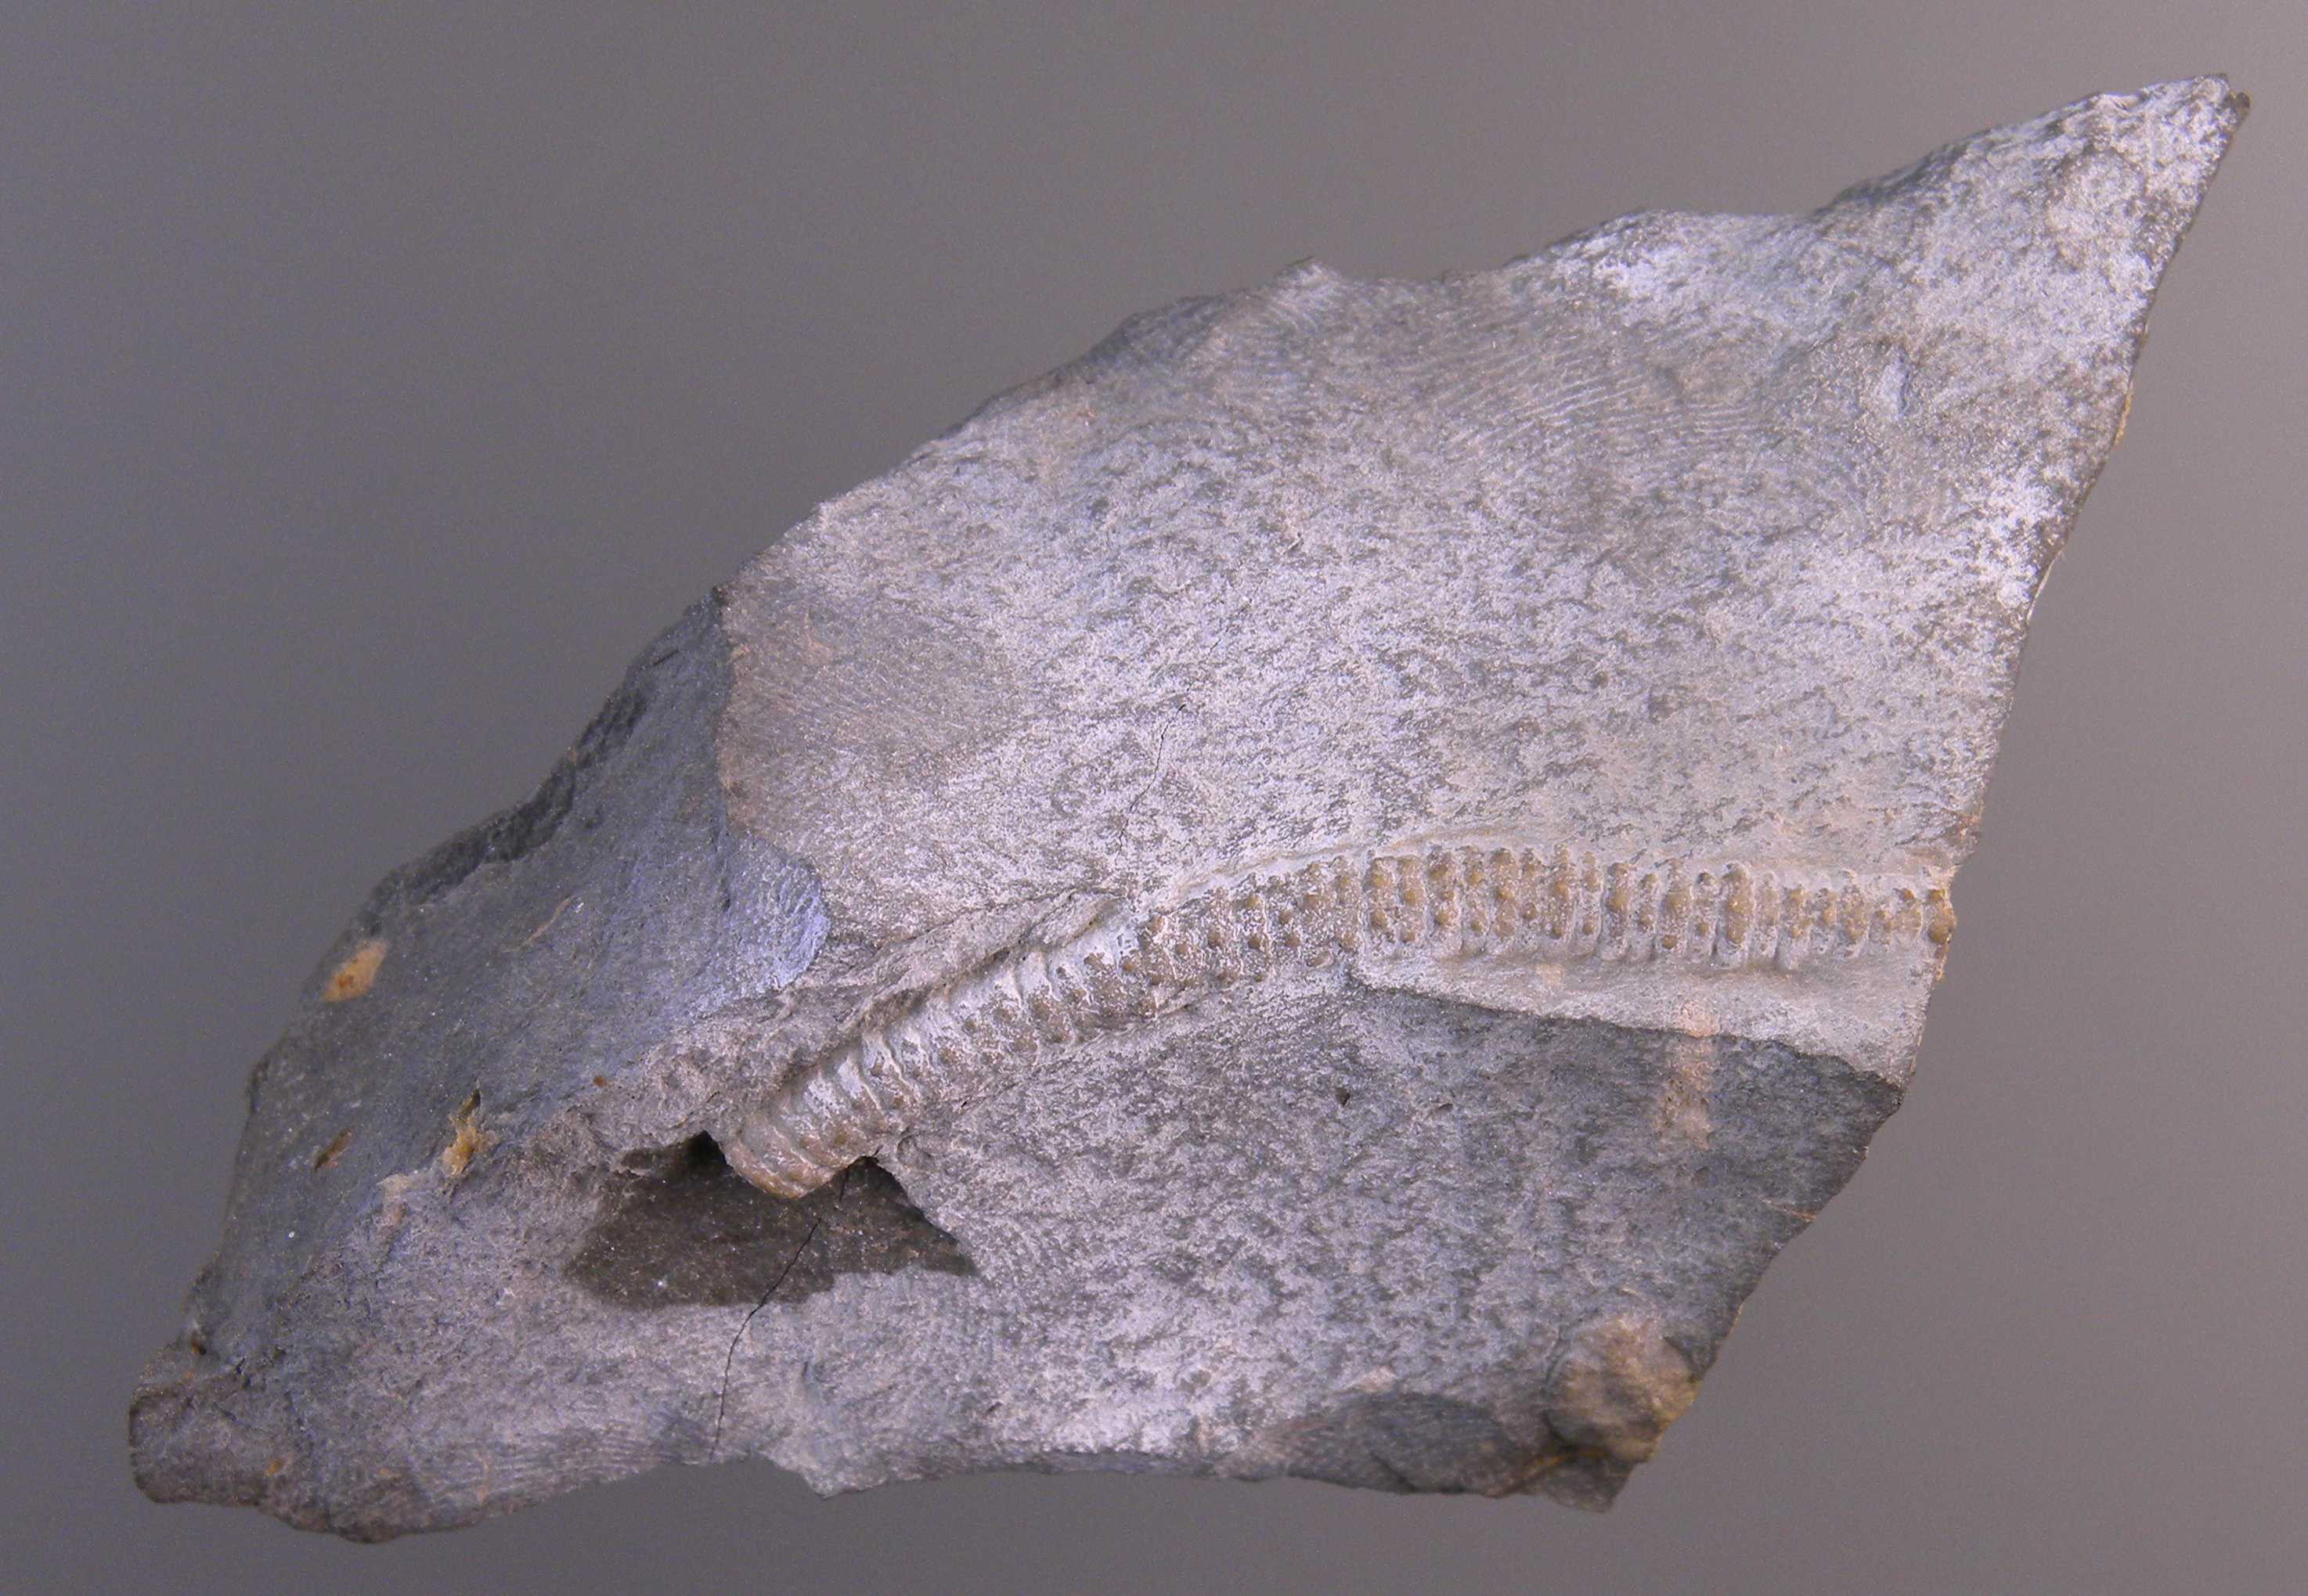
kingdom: Animalia
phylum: Echinodermata
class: Crinoidea
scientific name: Crinoidea
